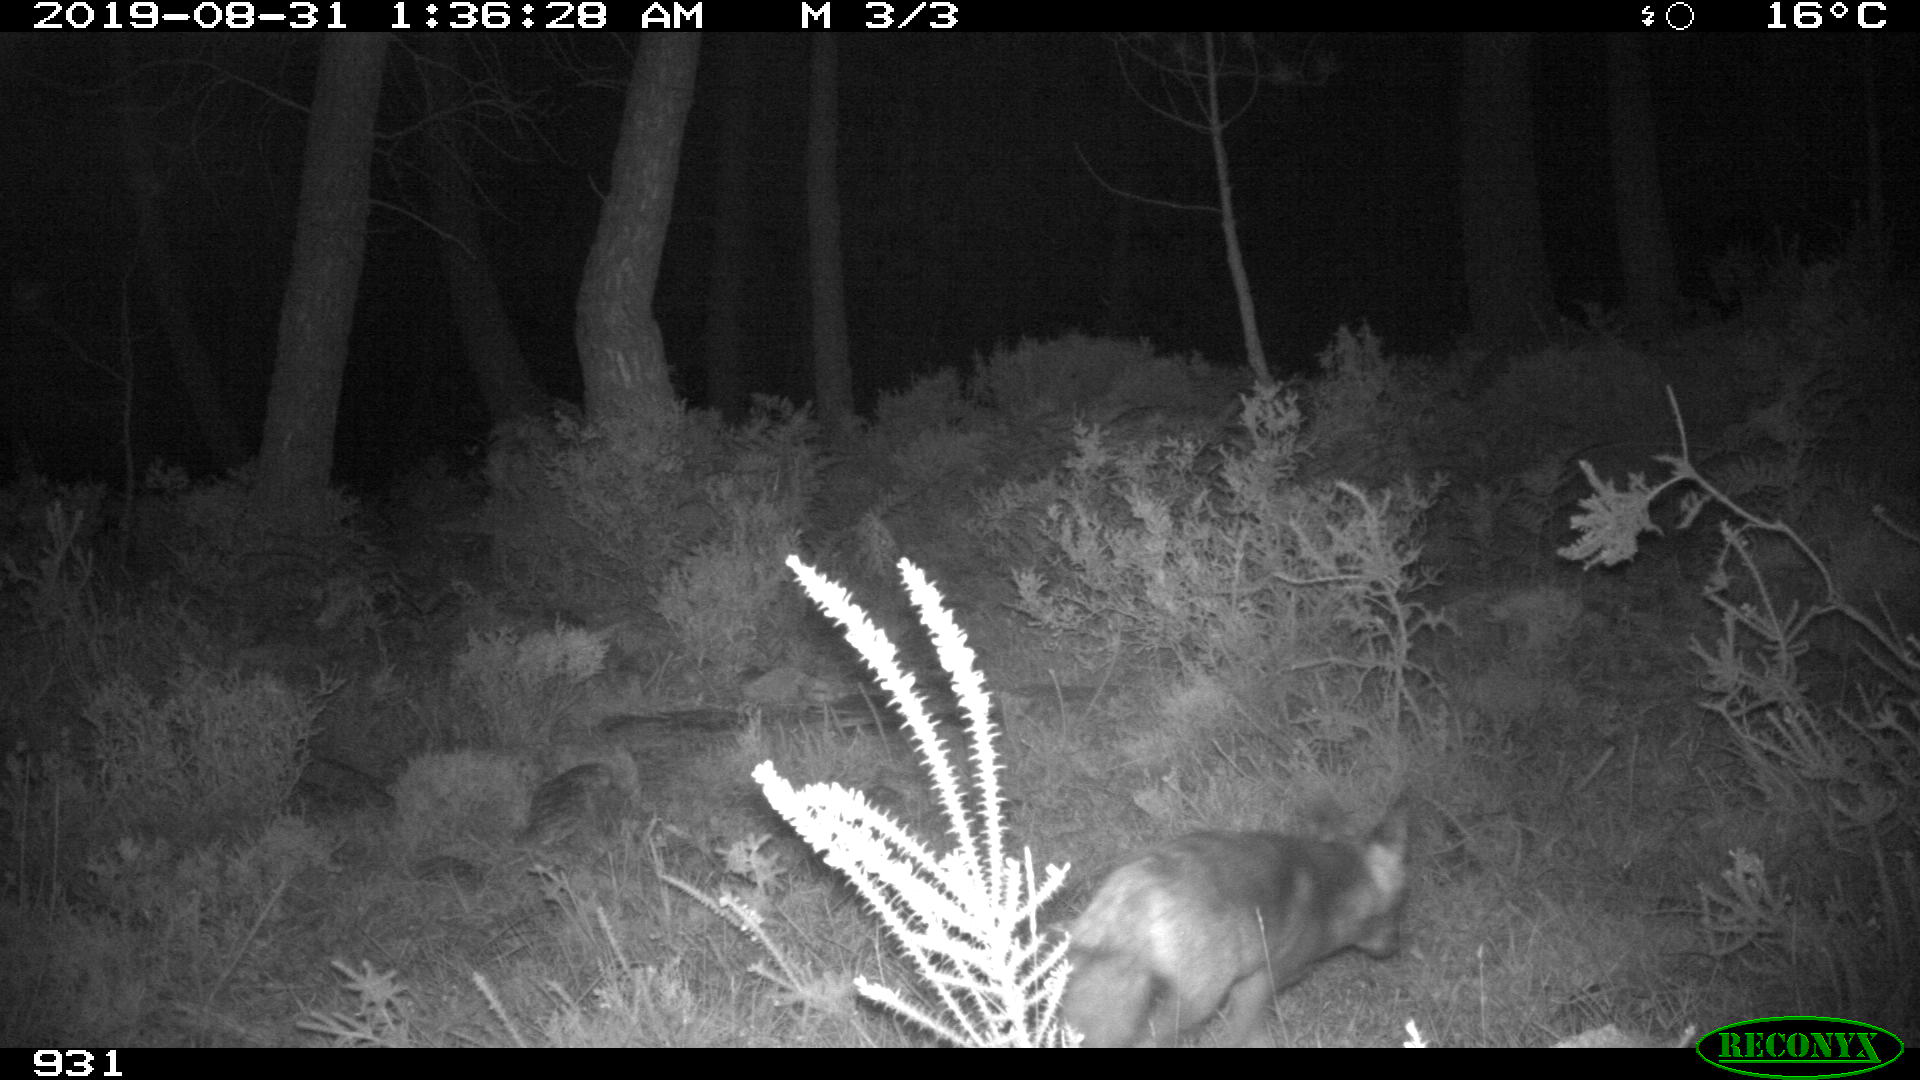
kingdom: Animalia
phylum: Chordata
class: Mammalia
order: Carnivora
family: Canidae
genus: Vulpes
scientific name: Vulpes vulpes
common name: Red fox
